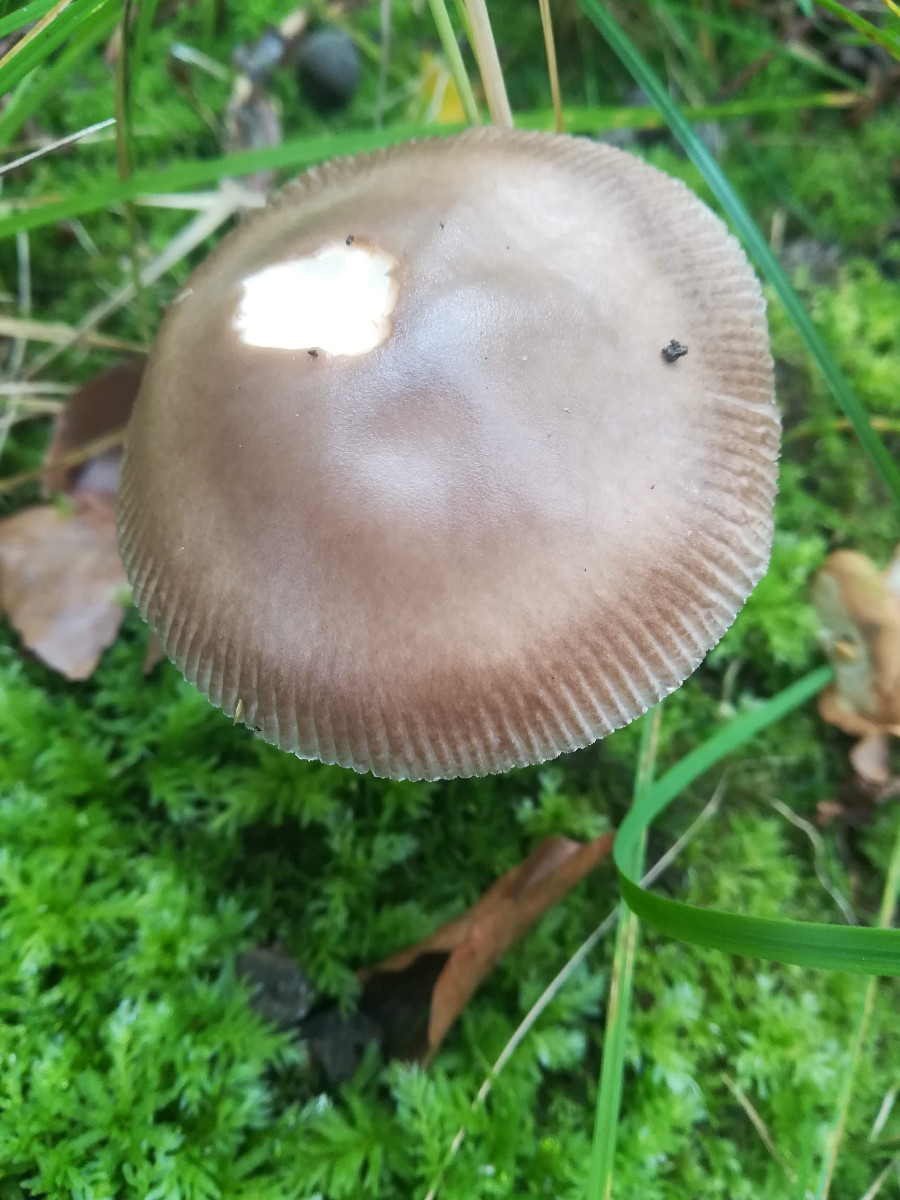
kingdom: Fungi
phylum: Basidiomycota
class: Agaricomycetes
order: Agaricales
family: Amanitaceae
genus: Amanita
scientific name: Amanita vaginata
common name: grå kam-fluesvamp
